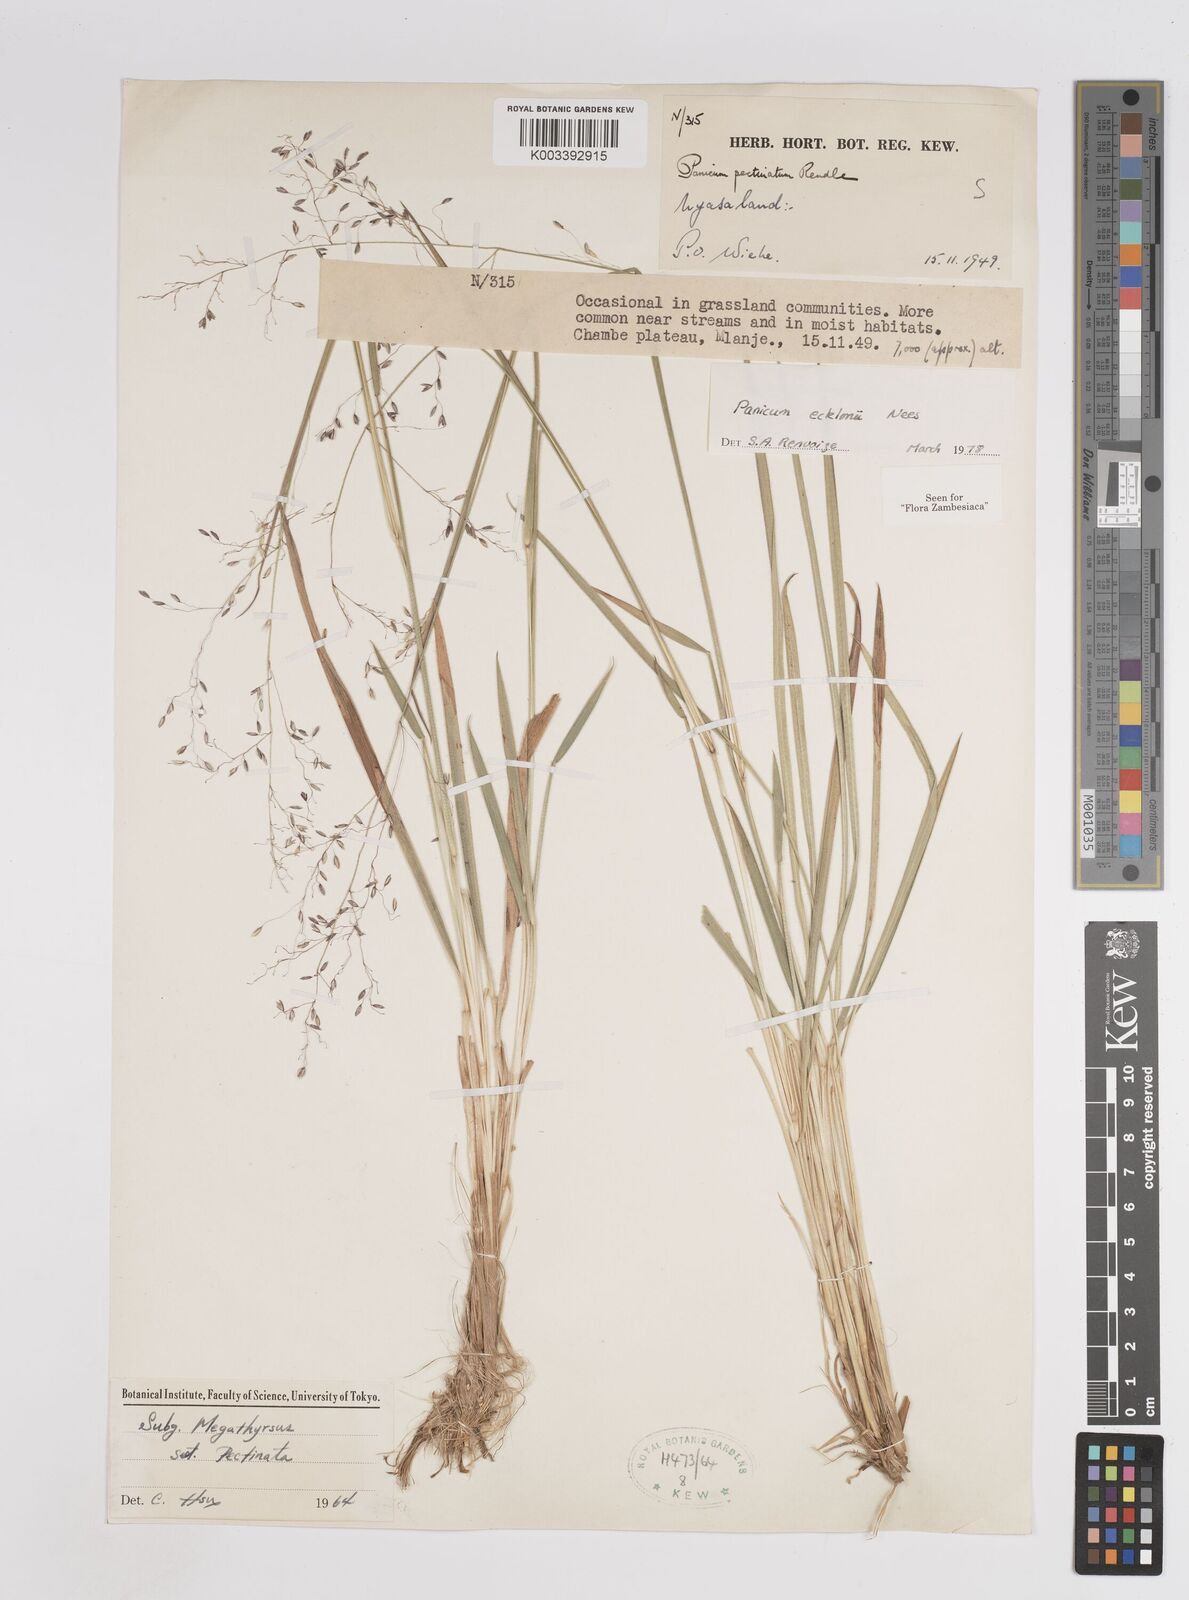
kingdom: Plantae
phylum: Tracheophyta
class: Liliopsida
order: Poales
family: Poaceae
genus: Adenochloa
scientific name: Adenochloa ecklonii
